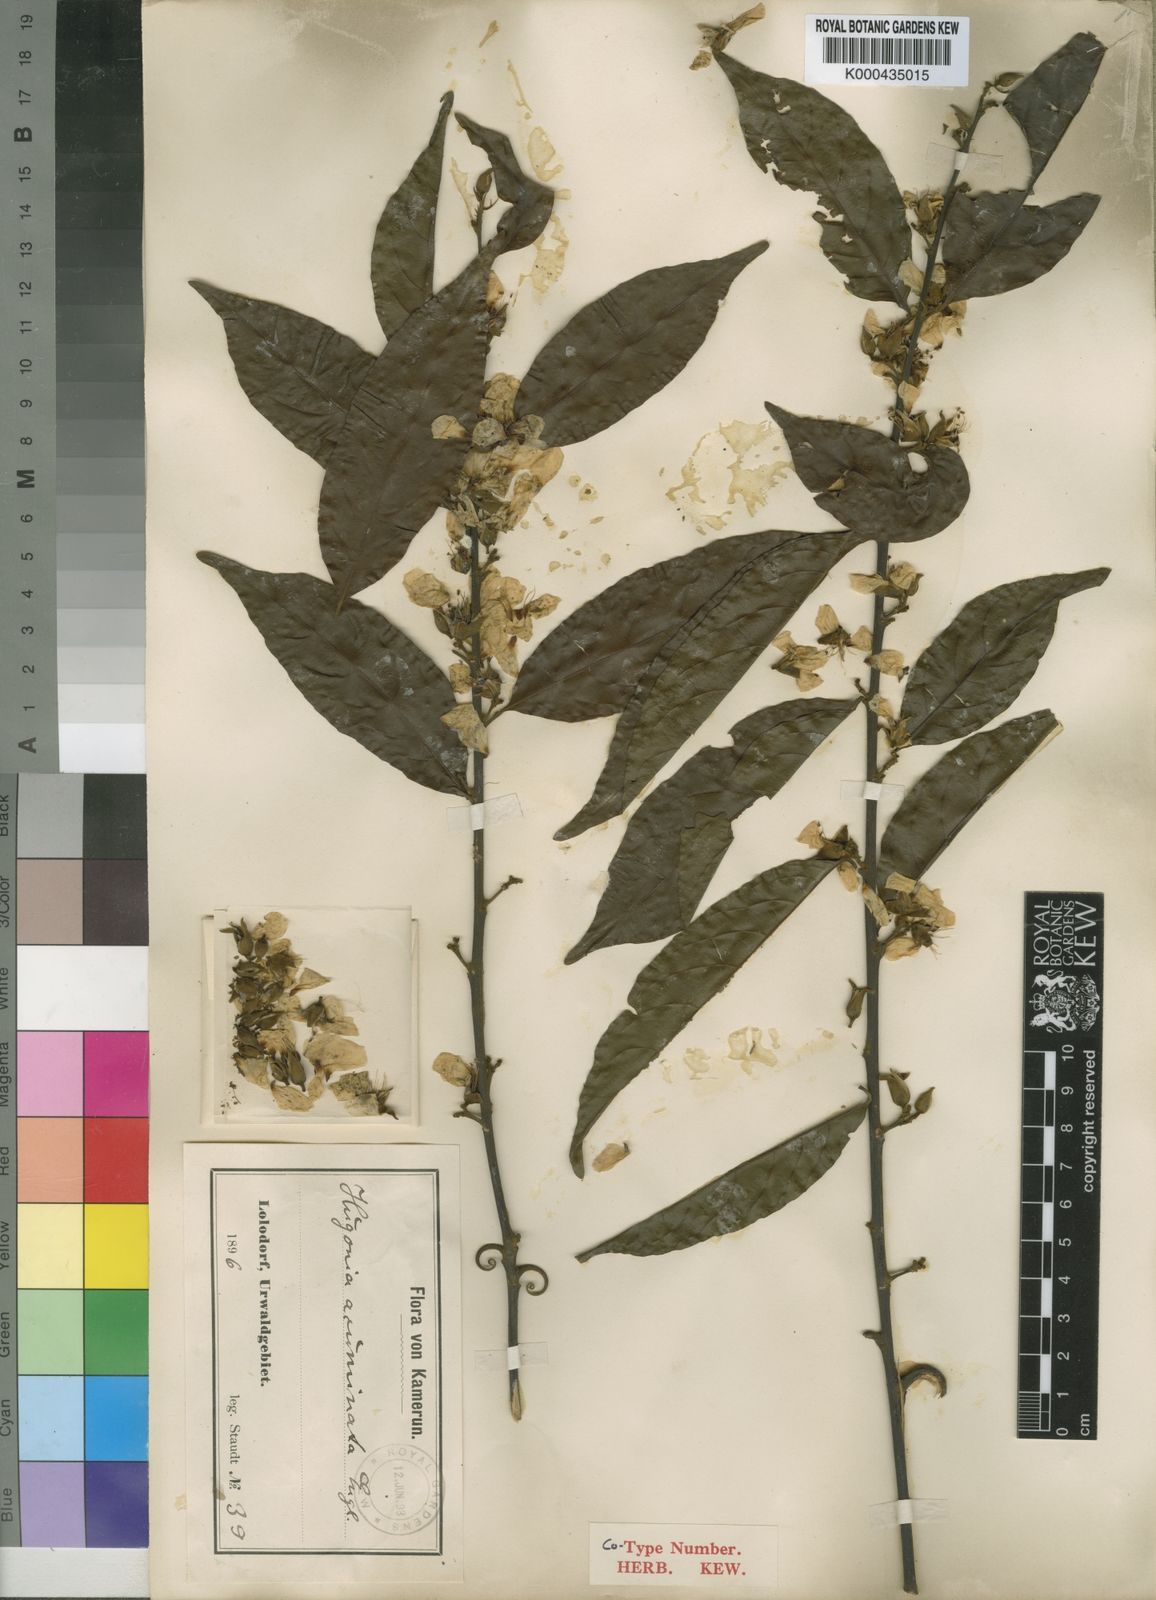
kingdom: Plantae
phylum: Tracheophyta
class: Magnoliopsida
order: Malpighiales
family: Linaceae
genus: Hugonia
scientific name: Hugonia planchonii
